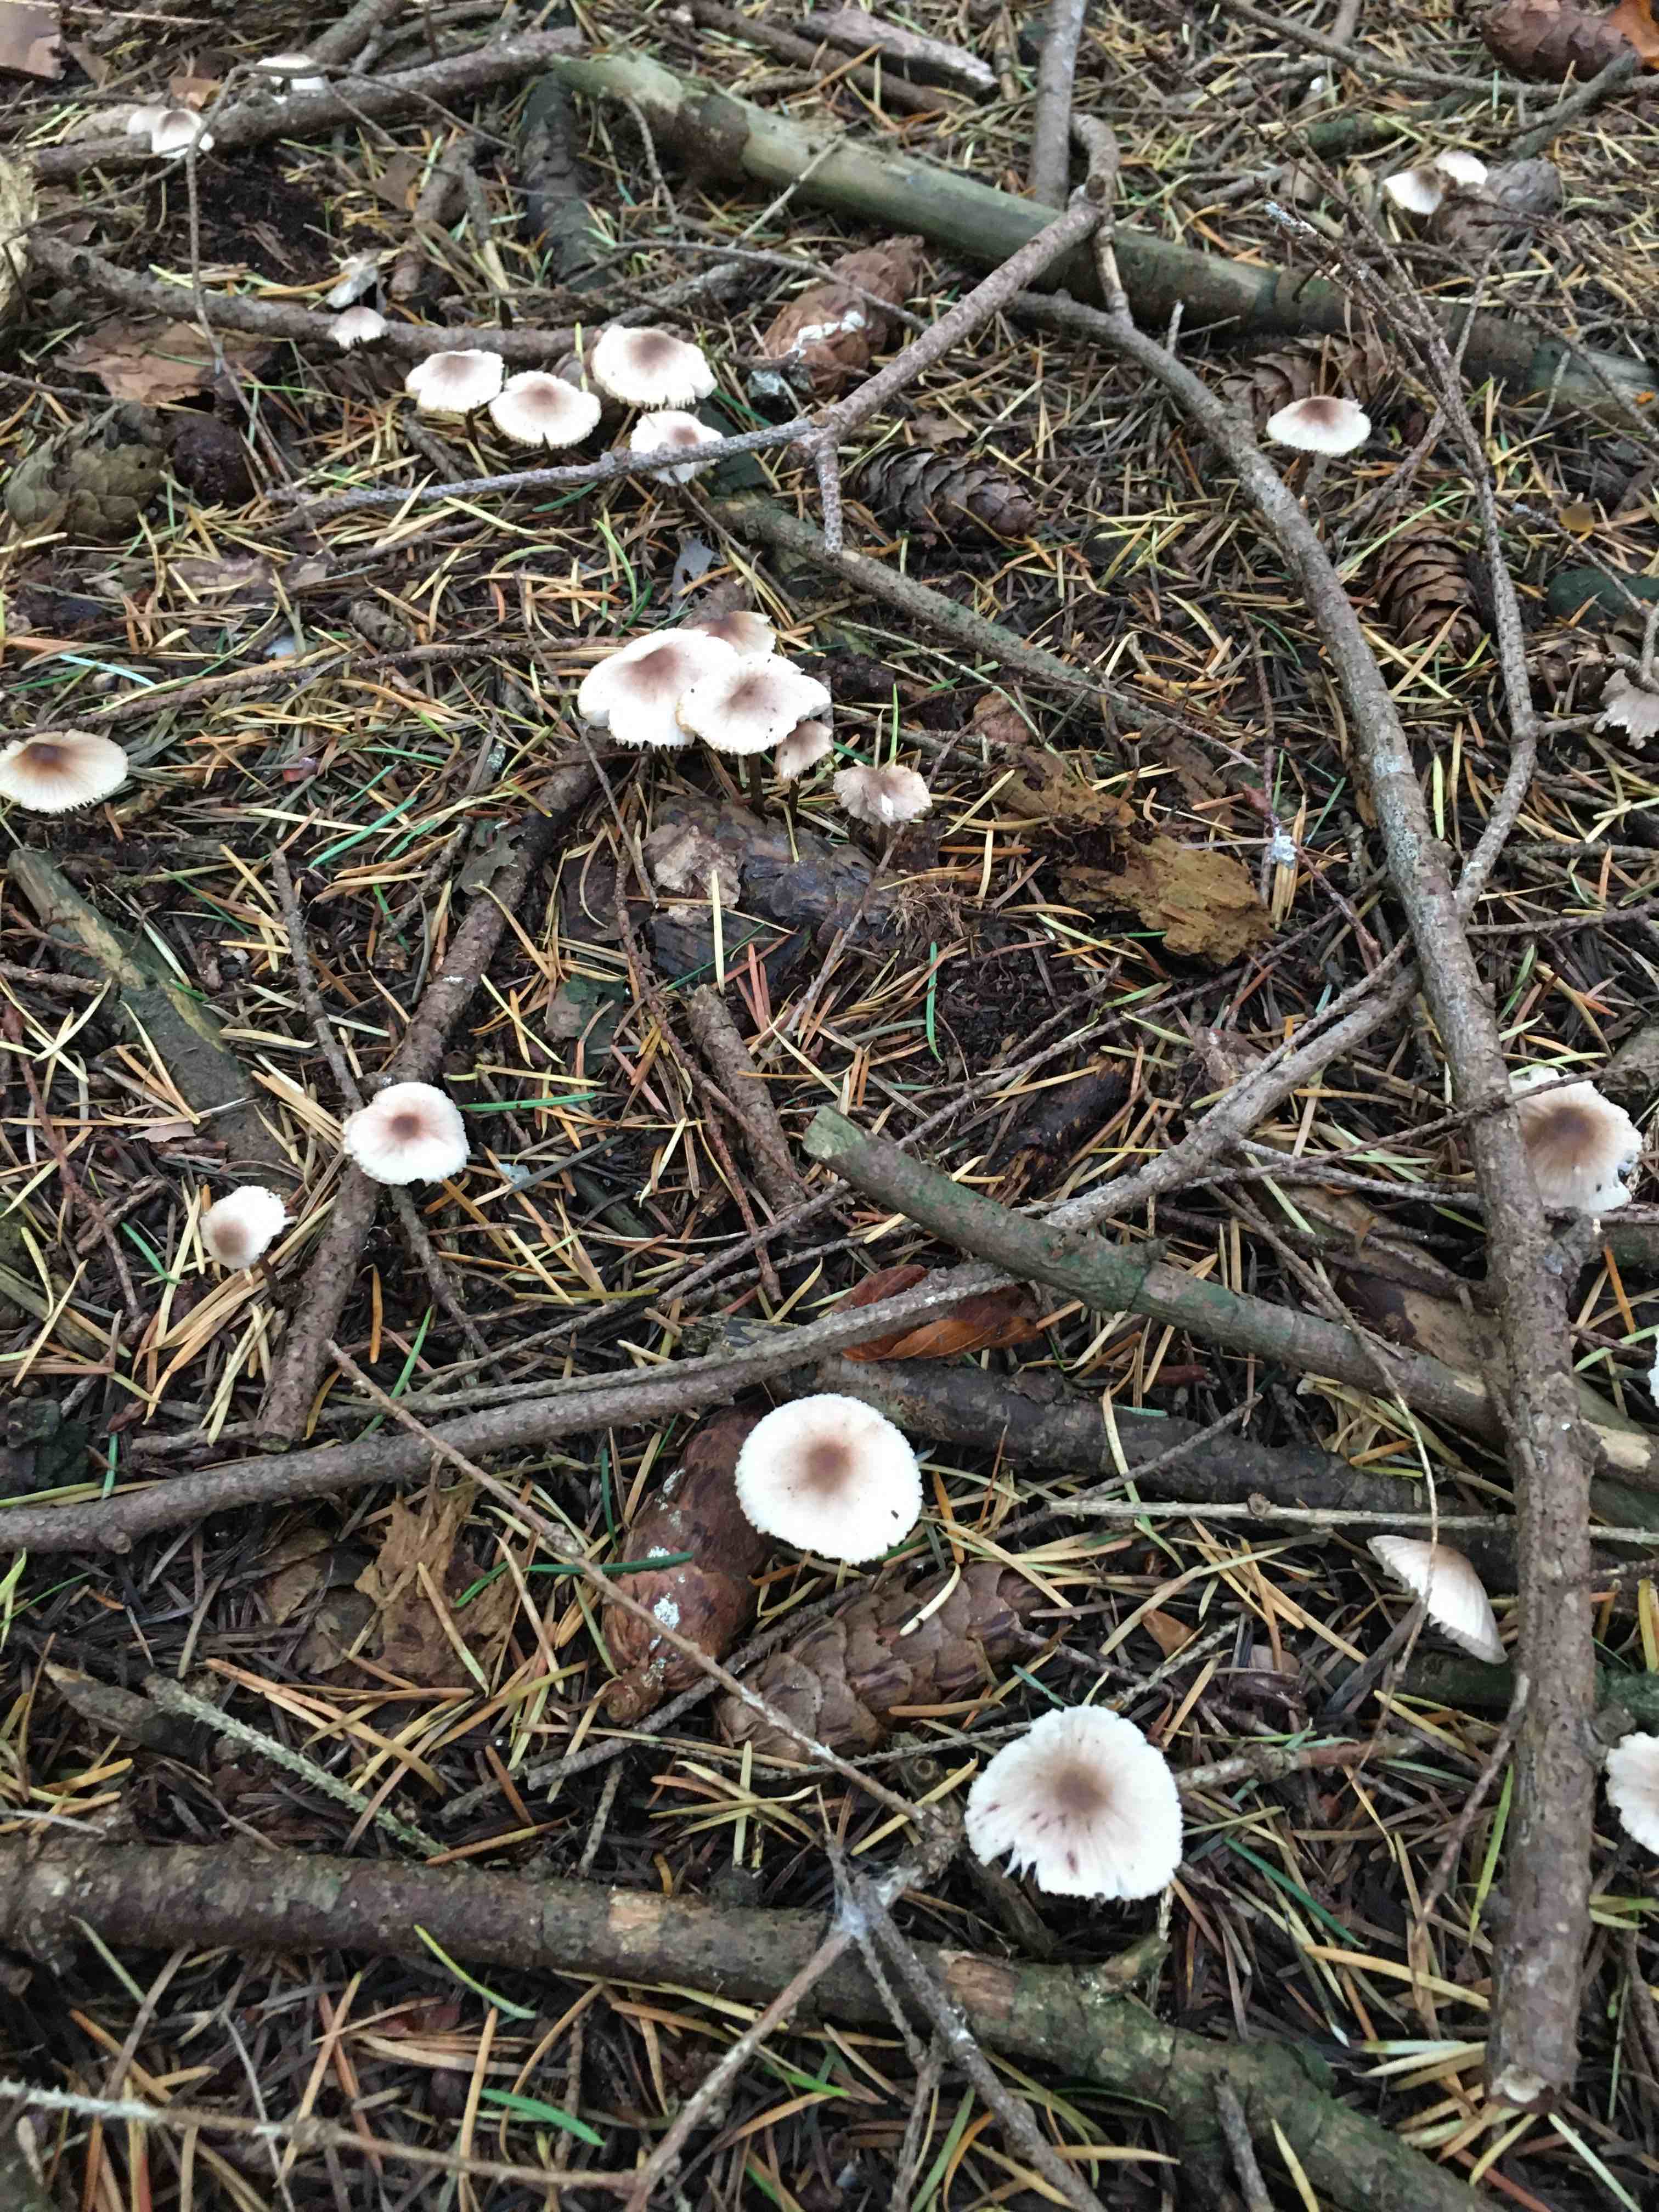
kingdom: Fungi
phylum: Basidiomycota
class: Agaricomycetes
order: Agaricales
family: Mycenaceae
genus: Mycena
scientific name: Mycena zephirus
